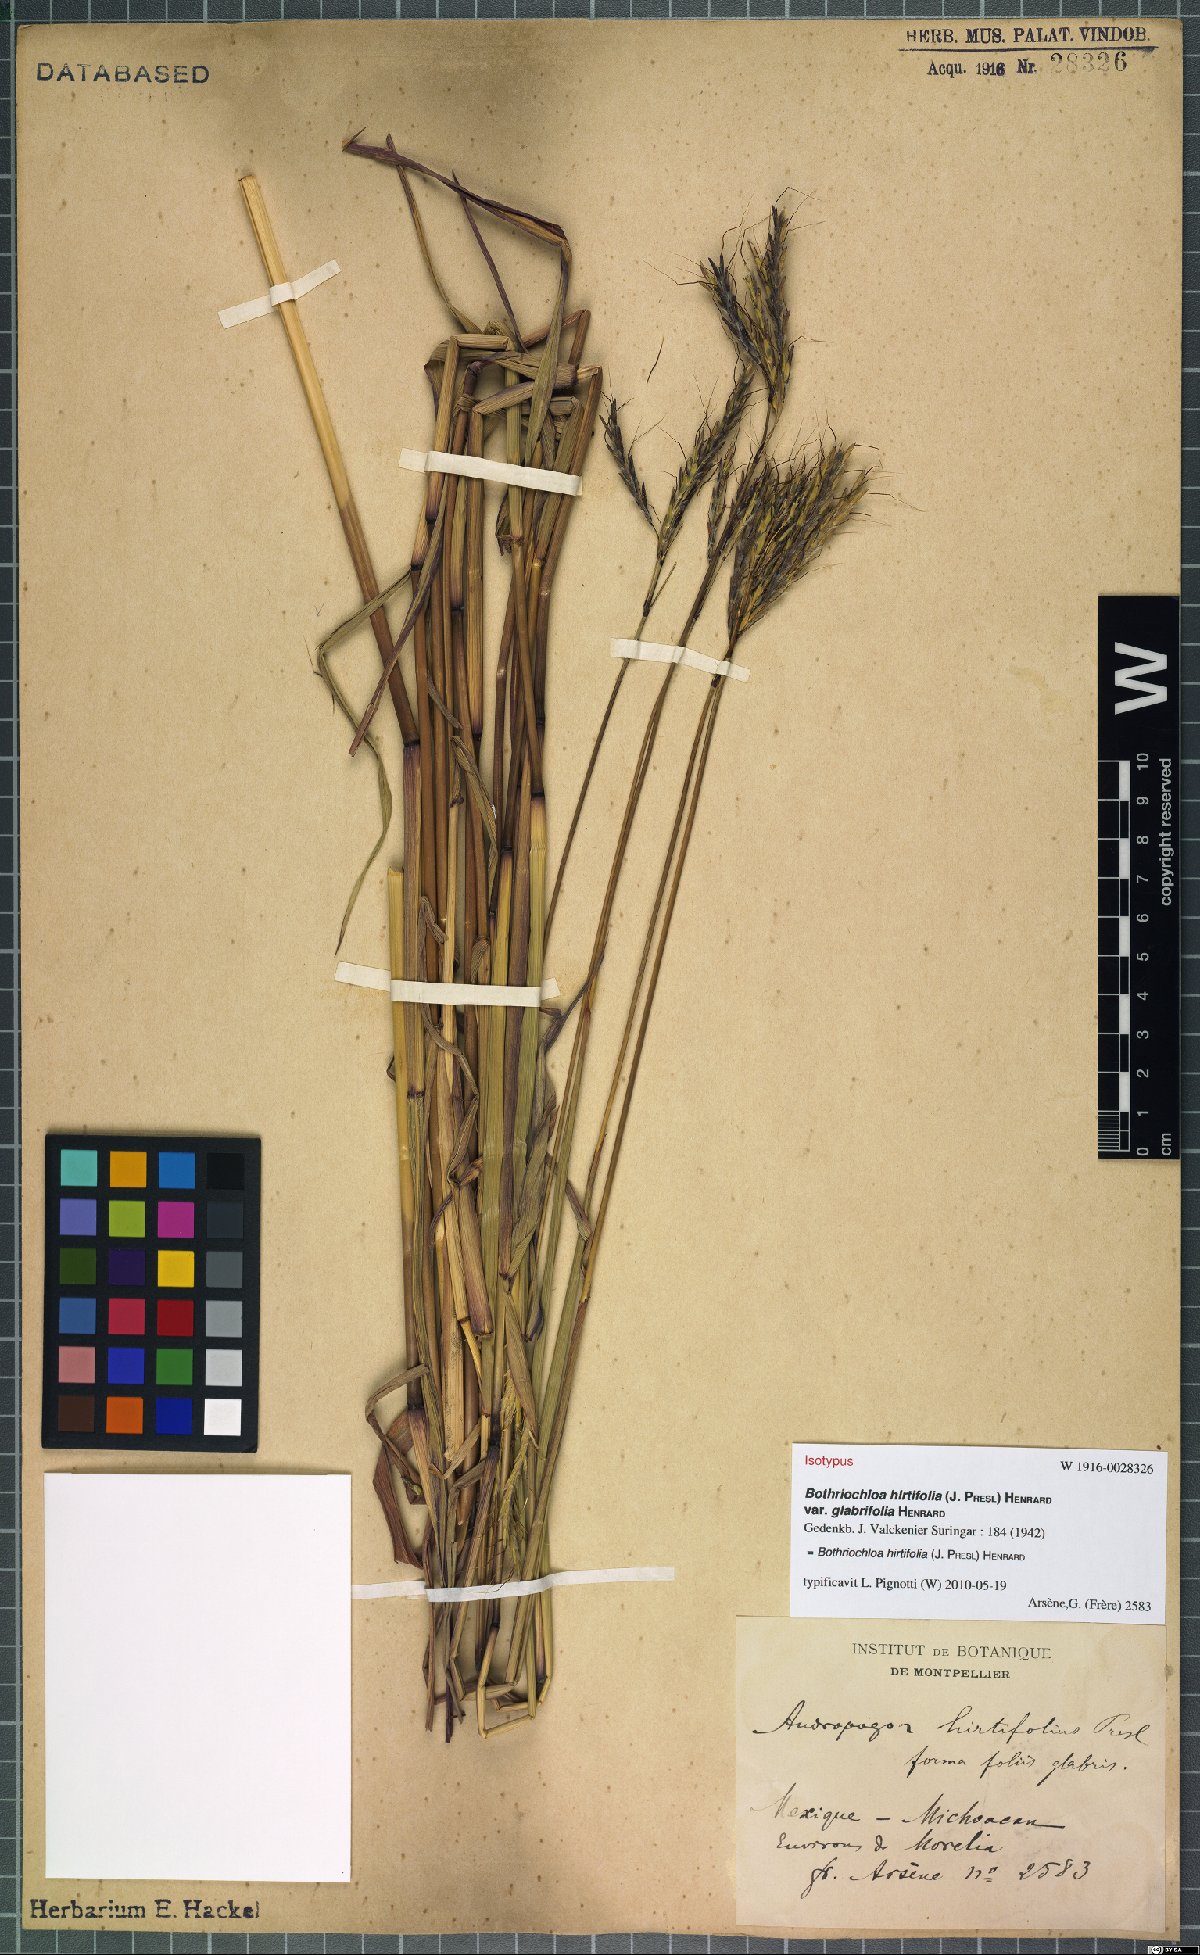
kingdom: Plantae
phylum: Tracheophyta
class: Liliopsida
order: Poales
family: Poaceae
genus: Bothriochloa
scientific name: Bothriochloa hirtifolia
